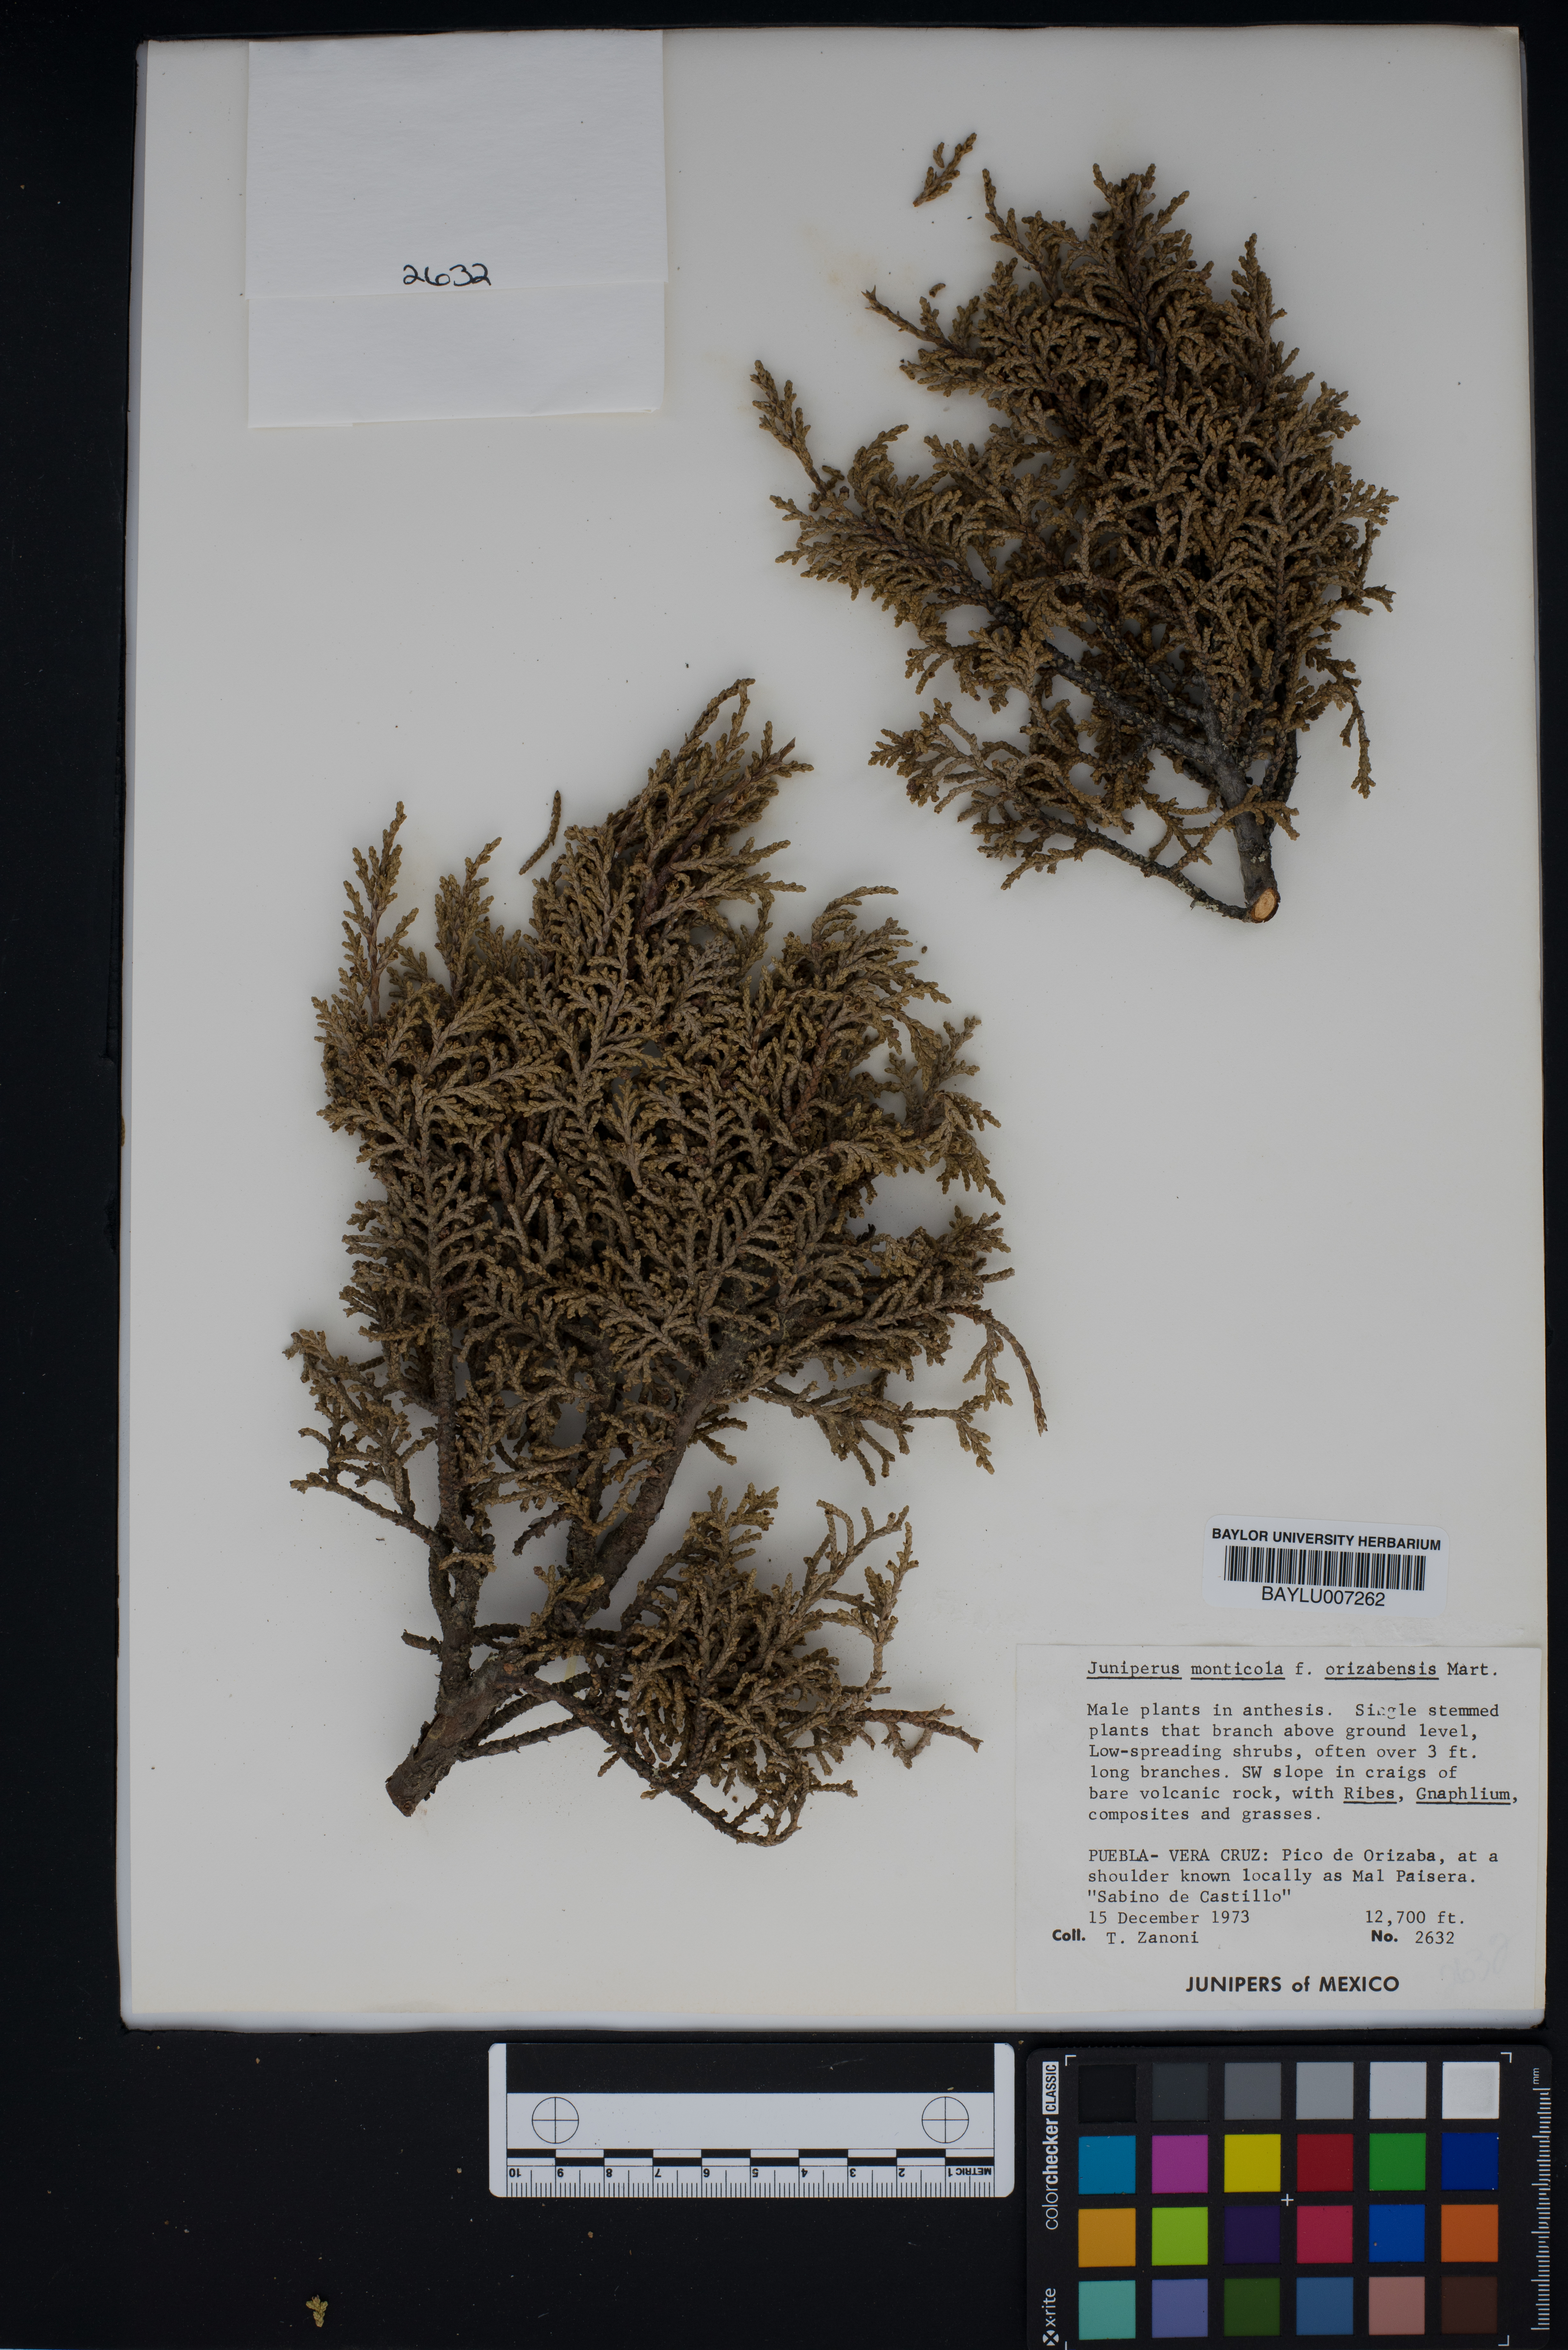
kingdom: Plantae
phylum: Tracheophyta
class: Pinopsida
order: Pinales
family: Cupressaceae
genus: Juniperus
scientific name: Juniperus monticola
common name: Mexican juniper
